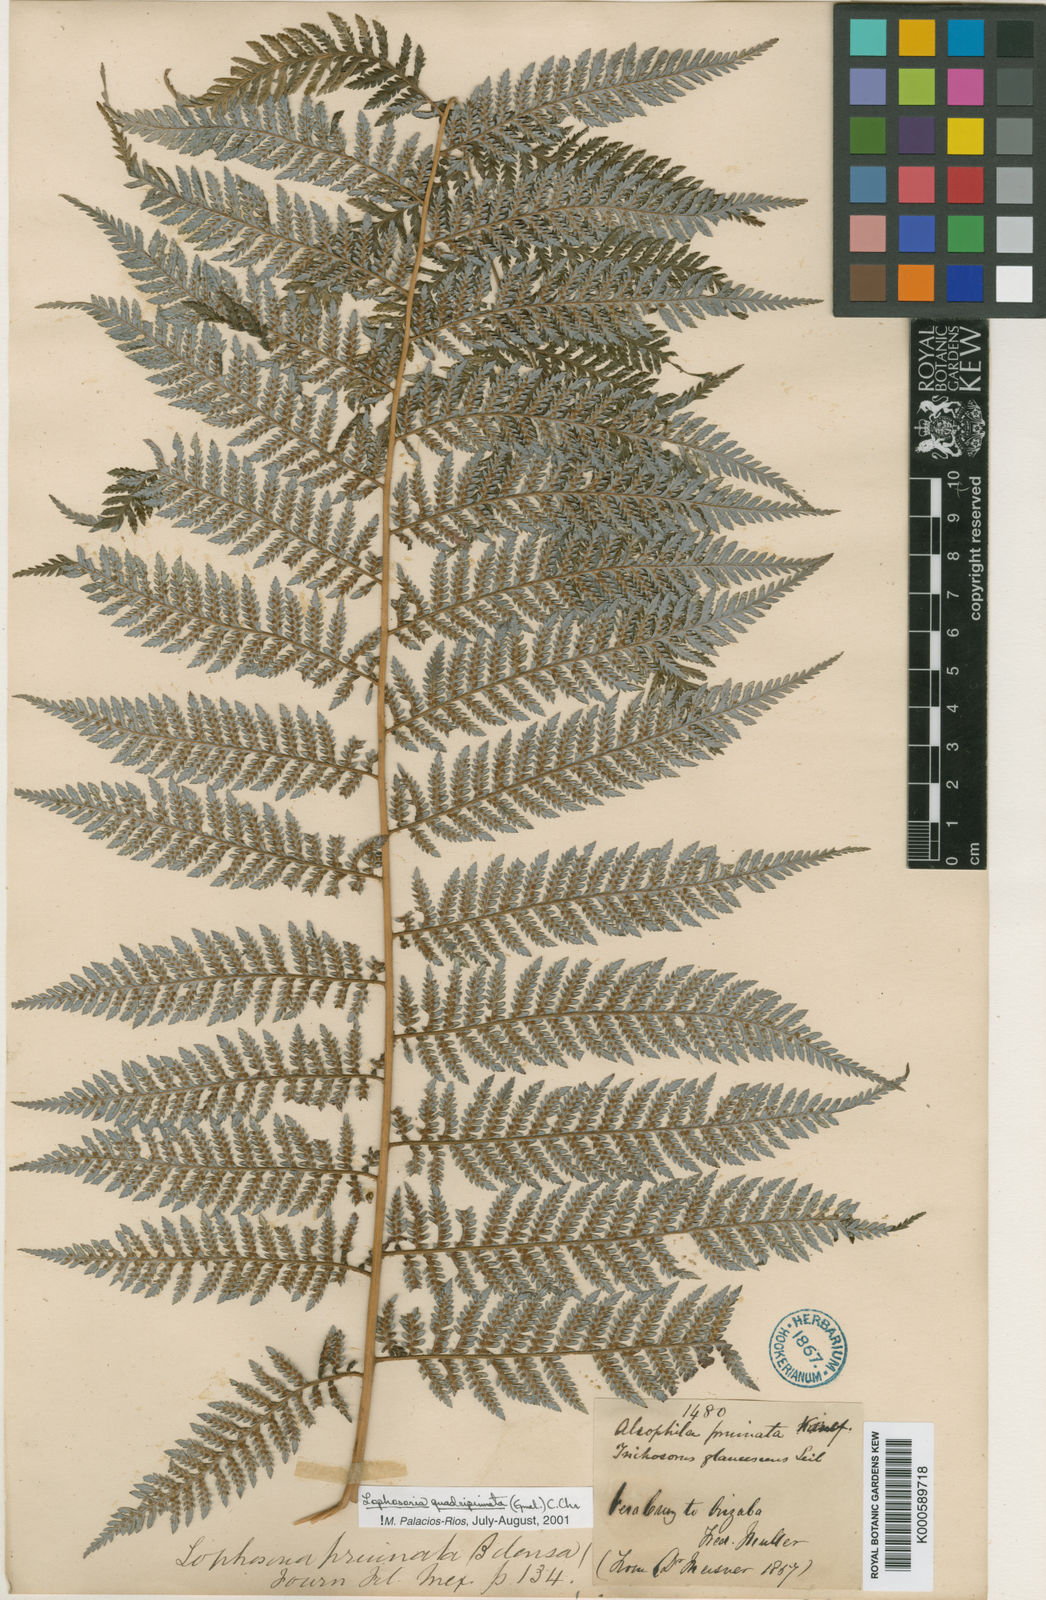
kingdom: Plantae
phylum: Tracheophyta
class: Polypodiopsida
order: Cyatheales
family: Dicksoniaceae
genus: Lophosoria
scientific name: Lophosoria quadripinnata
